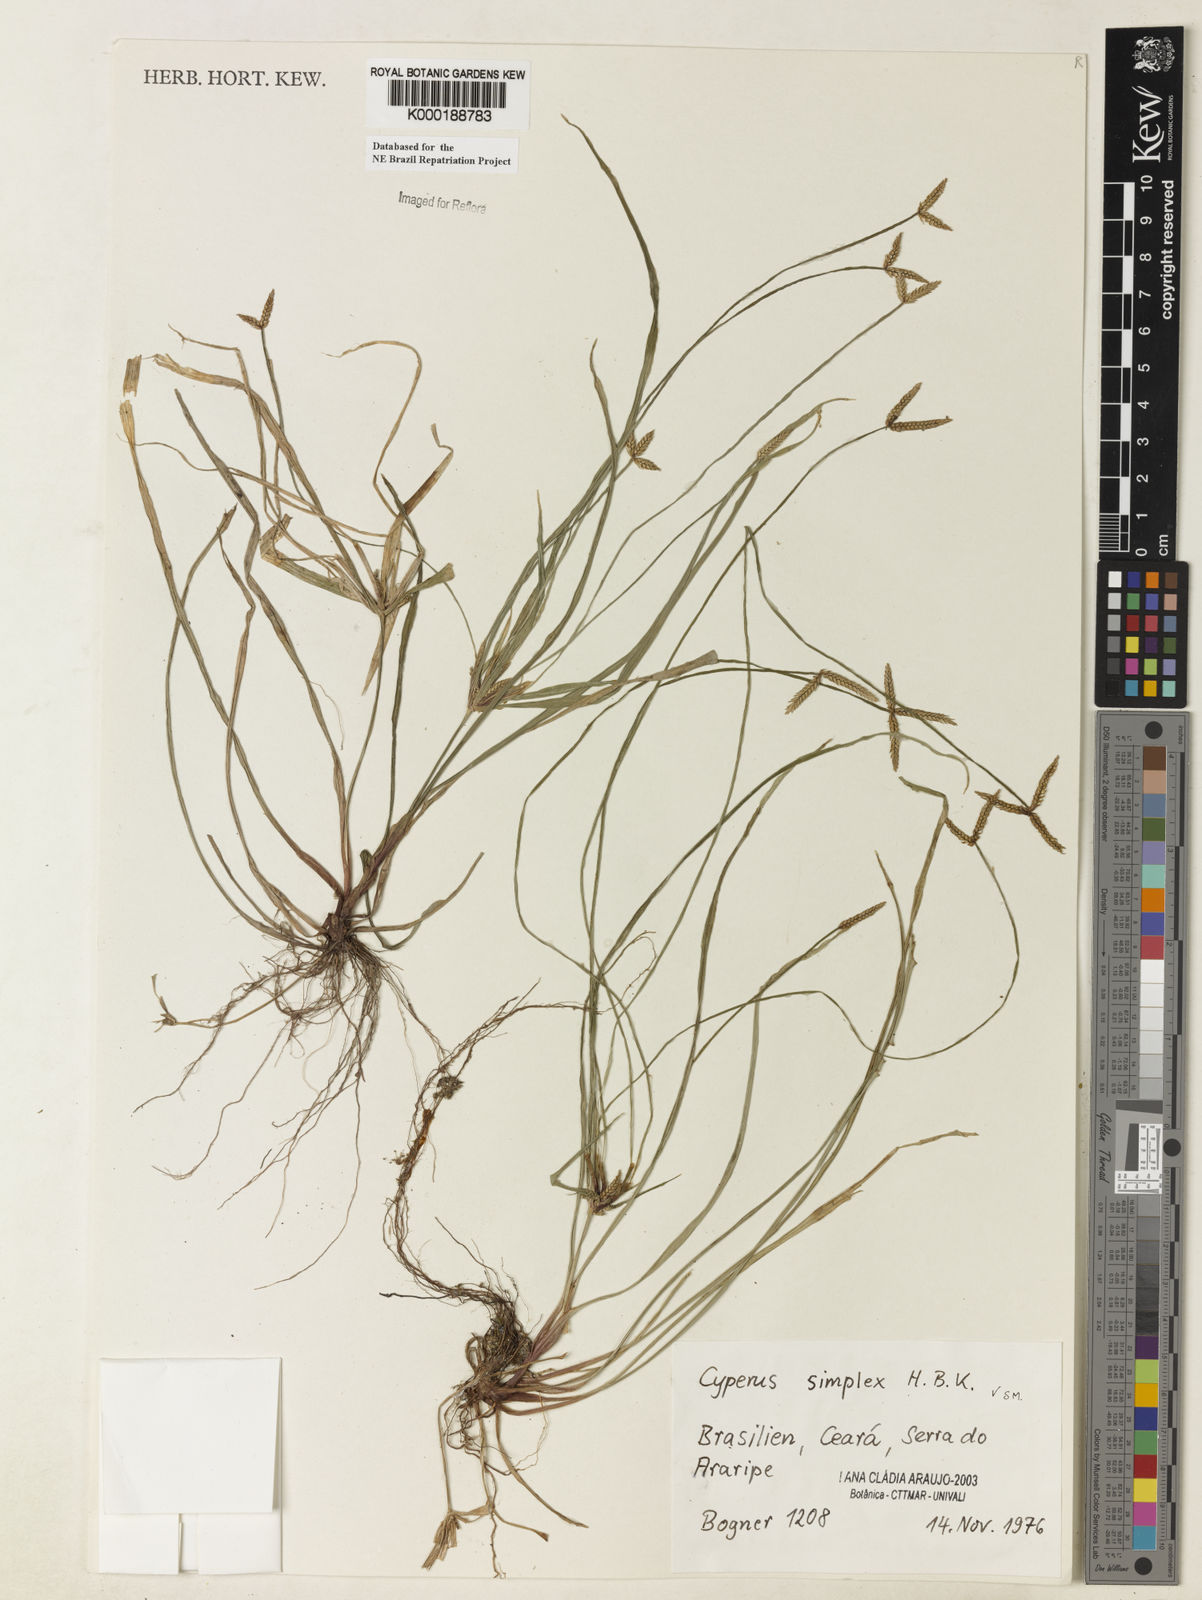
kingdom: Plantae
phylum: Tracheophyta
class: Liliopsida
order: Poales
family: Cyperaceae
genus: Cyperus
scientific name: Cyperus simplex
